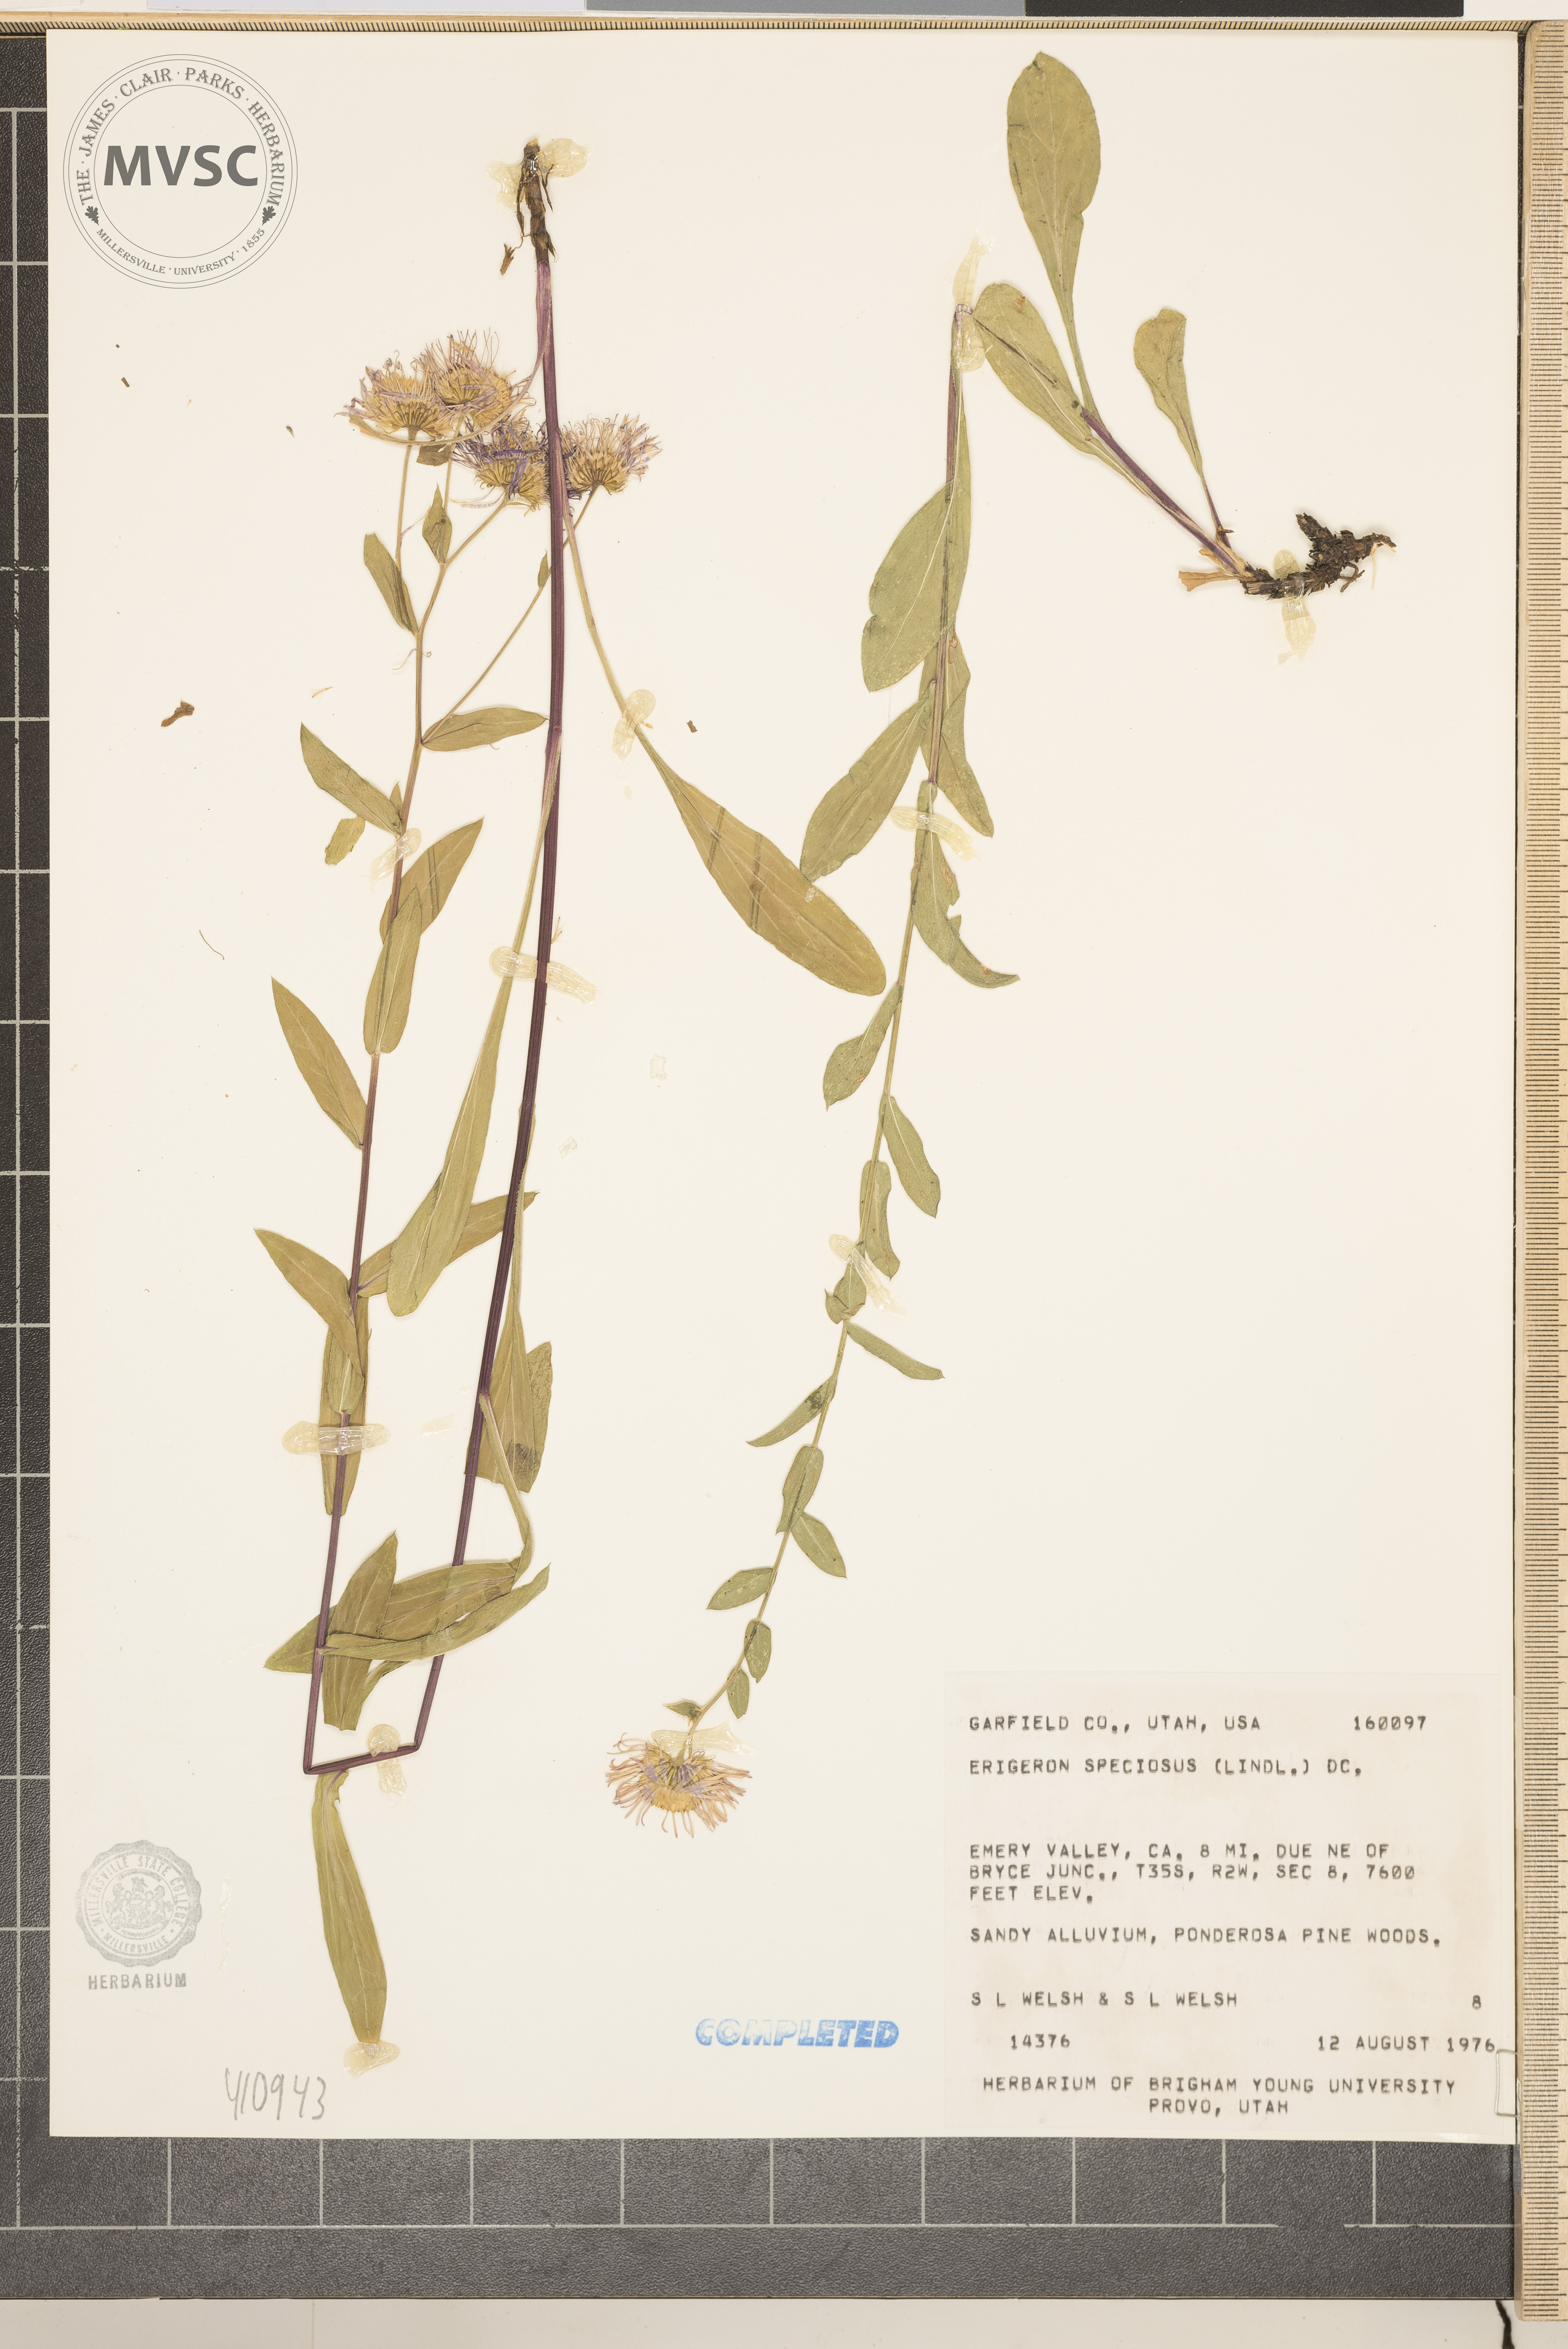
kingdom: Plantae
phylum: Tracheophyta
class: Magnoliopsida
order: Asterales
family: Asteraceae
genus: Erigeron
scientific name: Erigeron speciosus
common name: Aspen fleabane
